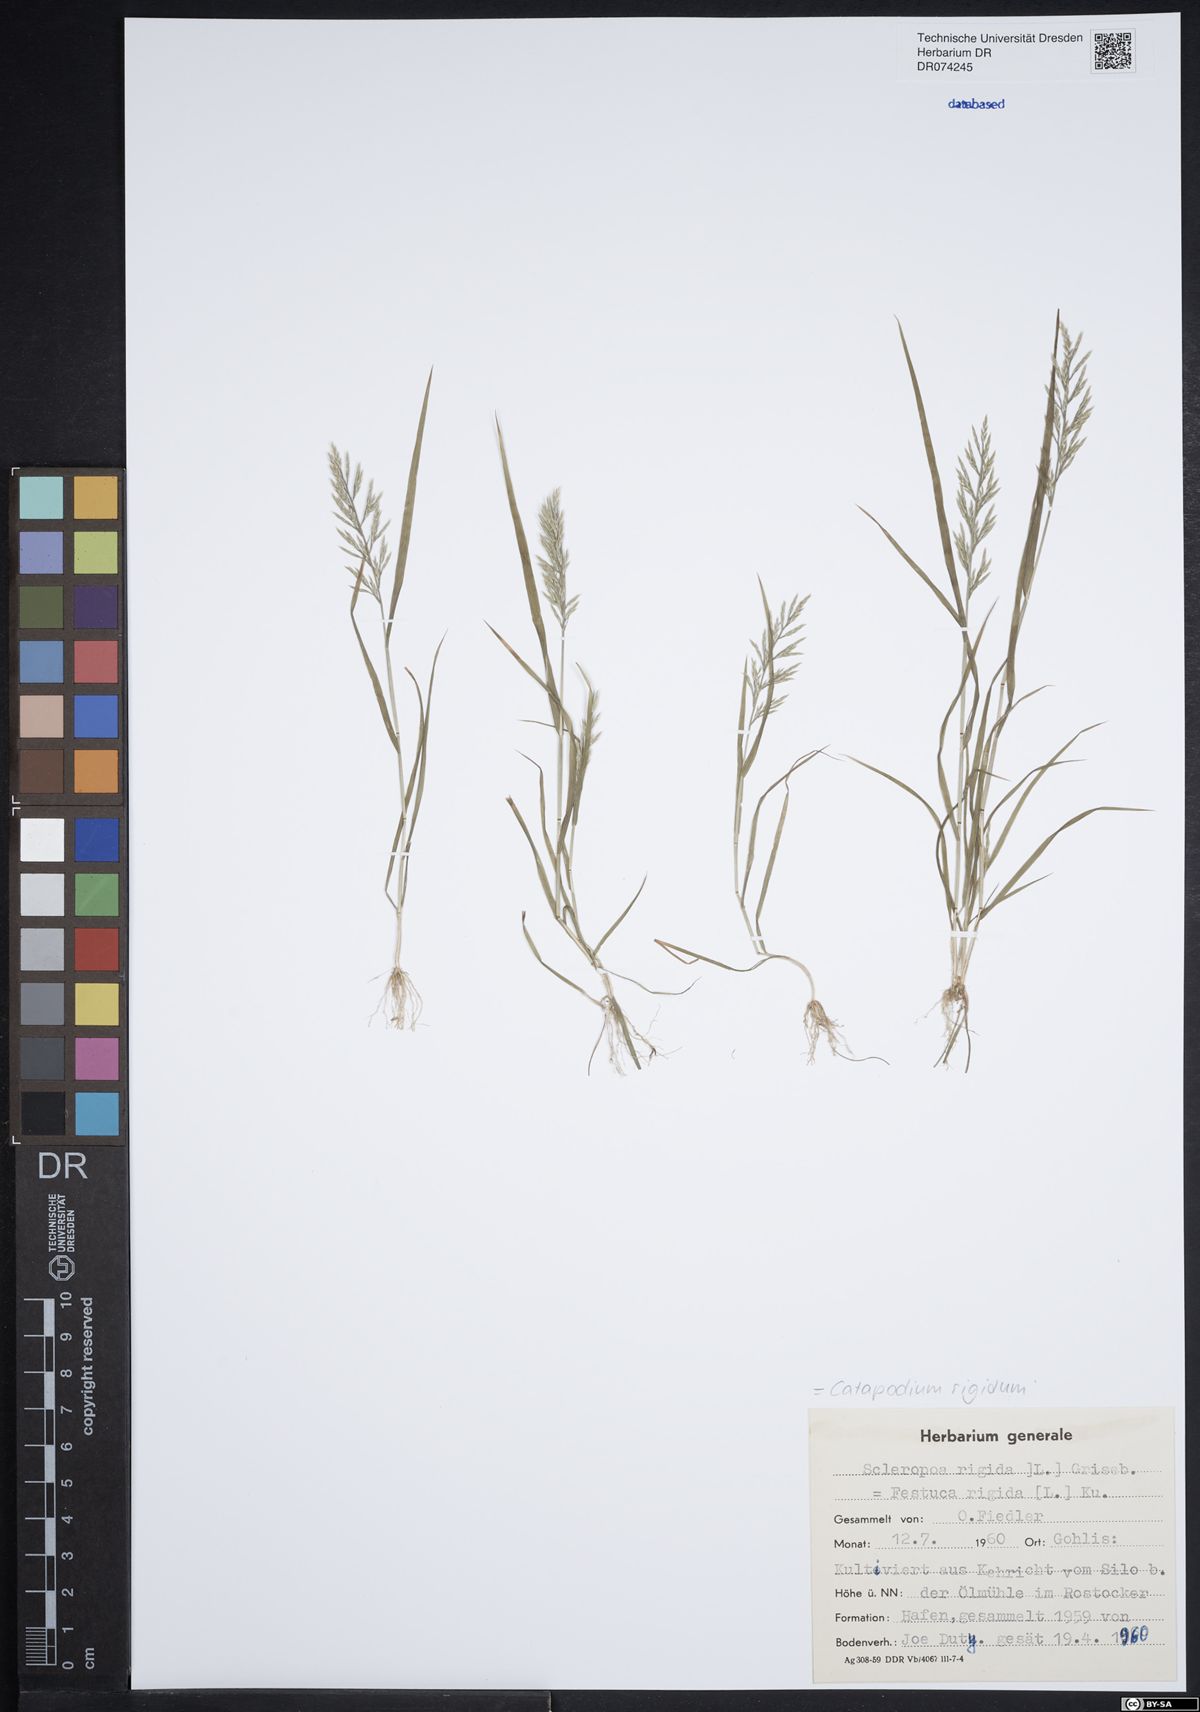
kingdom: Plantae
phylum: Tracheophyta
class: Liliopsida
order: Poales
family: Poaceae
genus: Catapodium
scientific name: Catapodium rigidum
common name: Fern-grass
